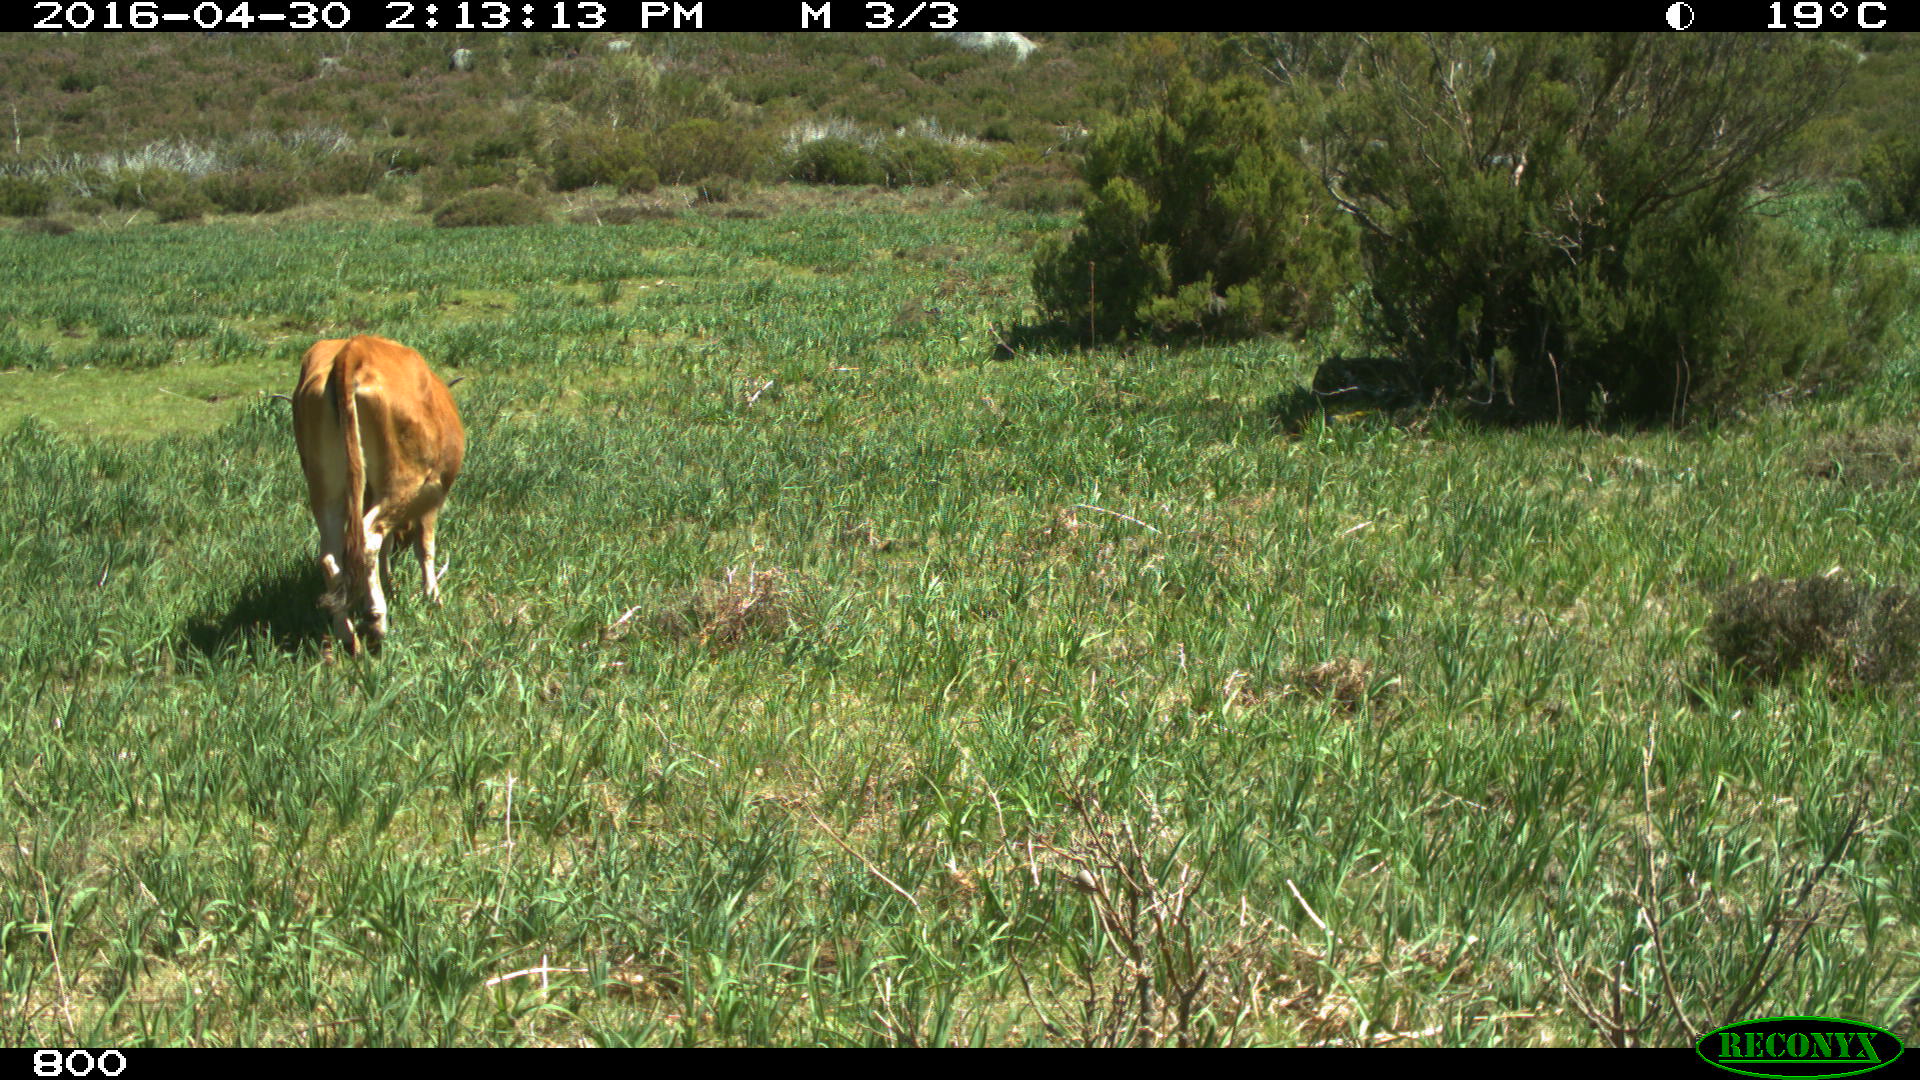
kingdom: Animalia
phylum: Chordata
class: Mammalia
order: Artiodactyla
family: Bovidae
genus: Bos
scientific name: Bos taurus
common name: Domesticated cattle
